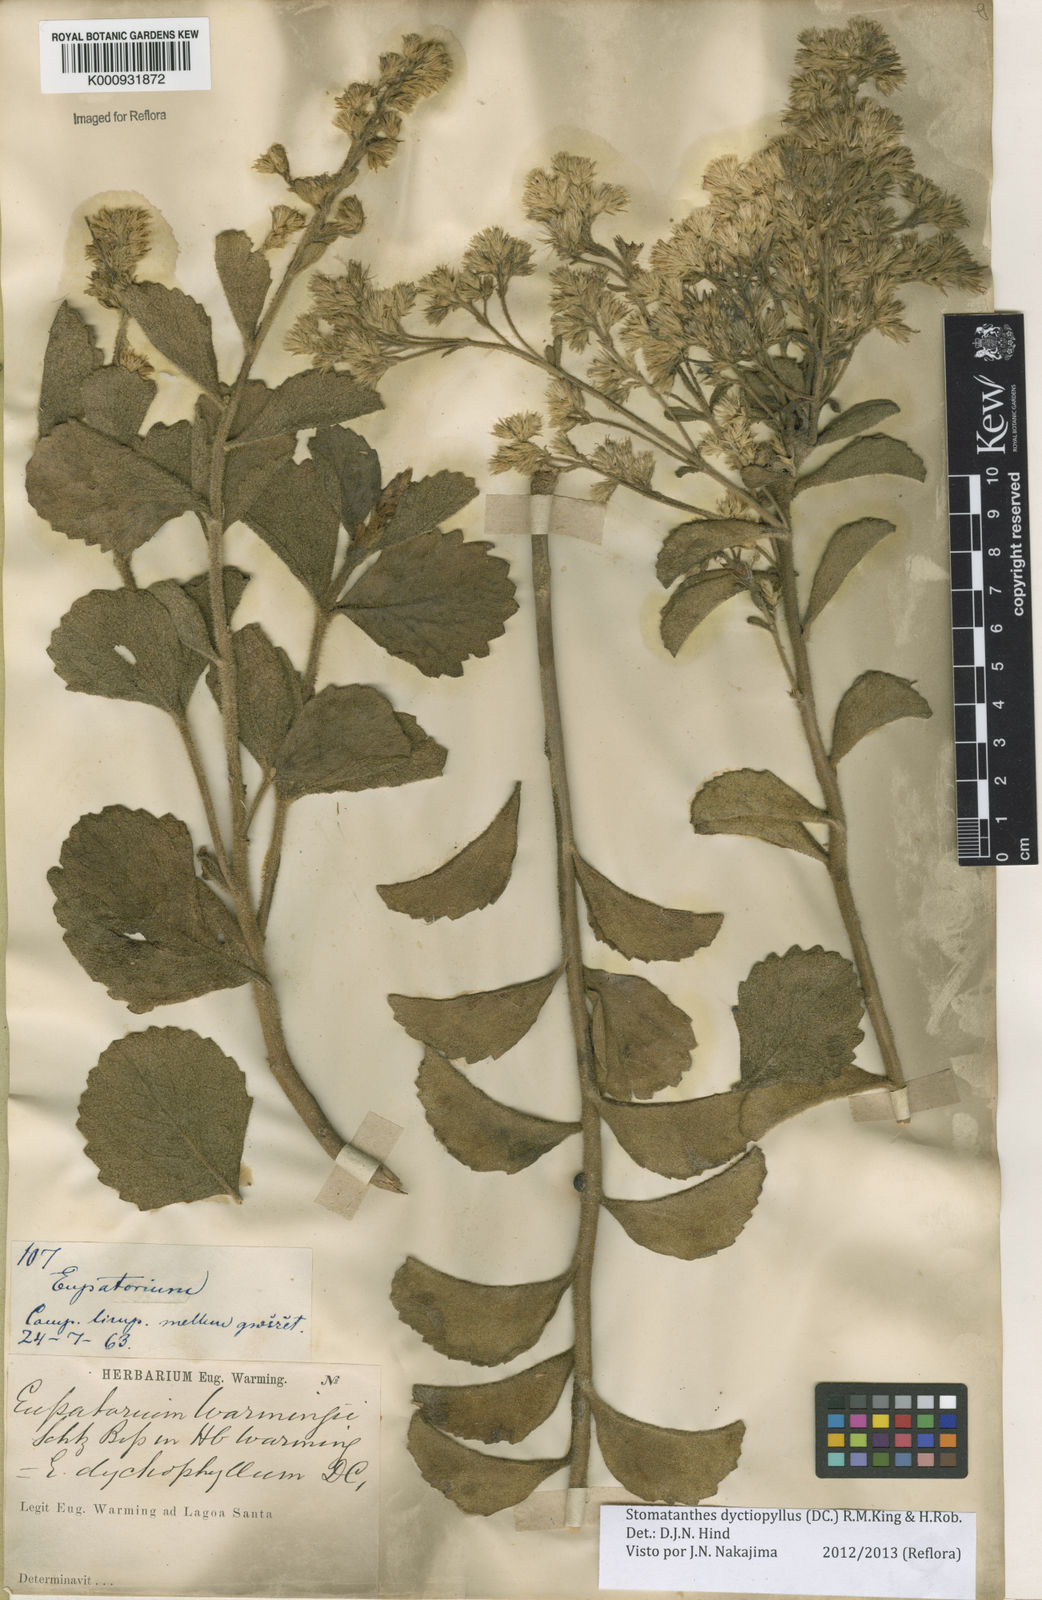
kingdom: Plantae
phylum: Tracheophyta
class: Magnoliopsida
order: Asterales
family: Asteraceae
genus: Stomatanthes
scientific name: Stomatanthes dictyophyllus
